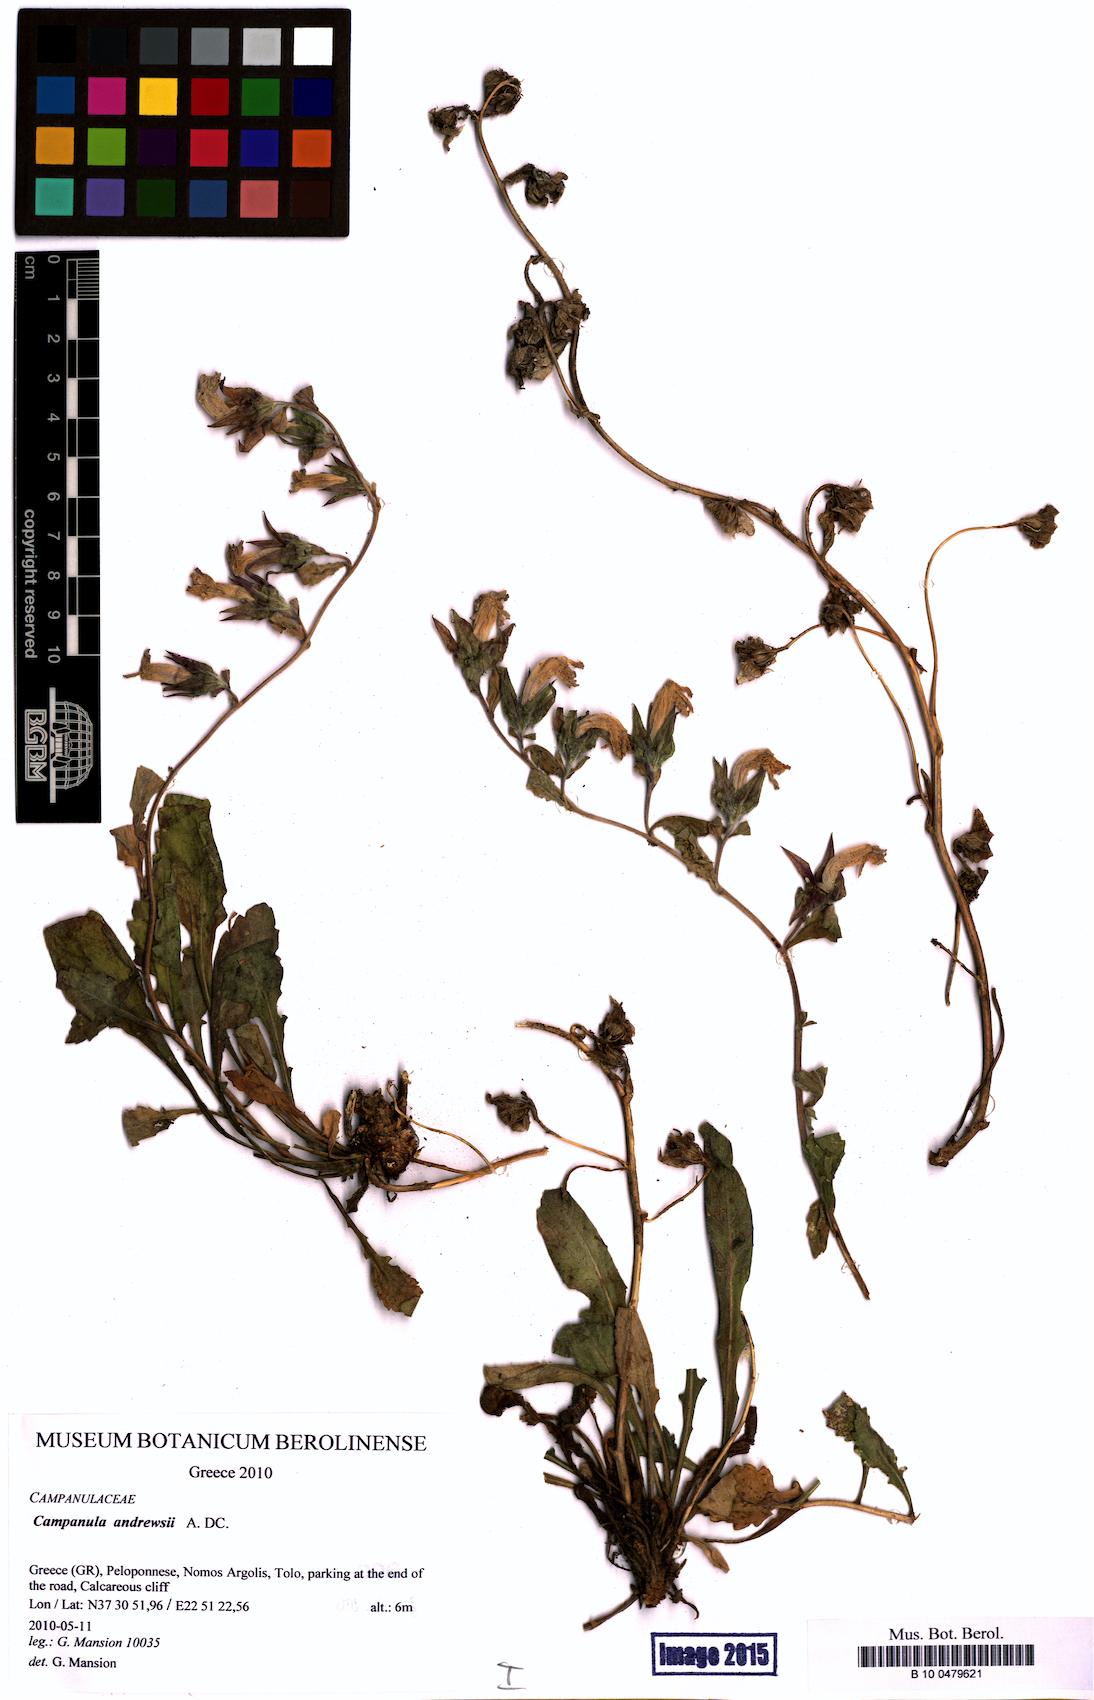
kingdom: Plantae
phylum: Tracheophyta
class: Magnoliopsida
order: Asterales
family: Campanulaceae
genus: Campanula
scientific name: Campanula andrewsii
